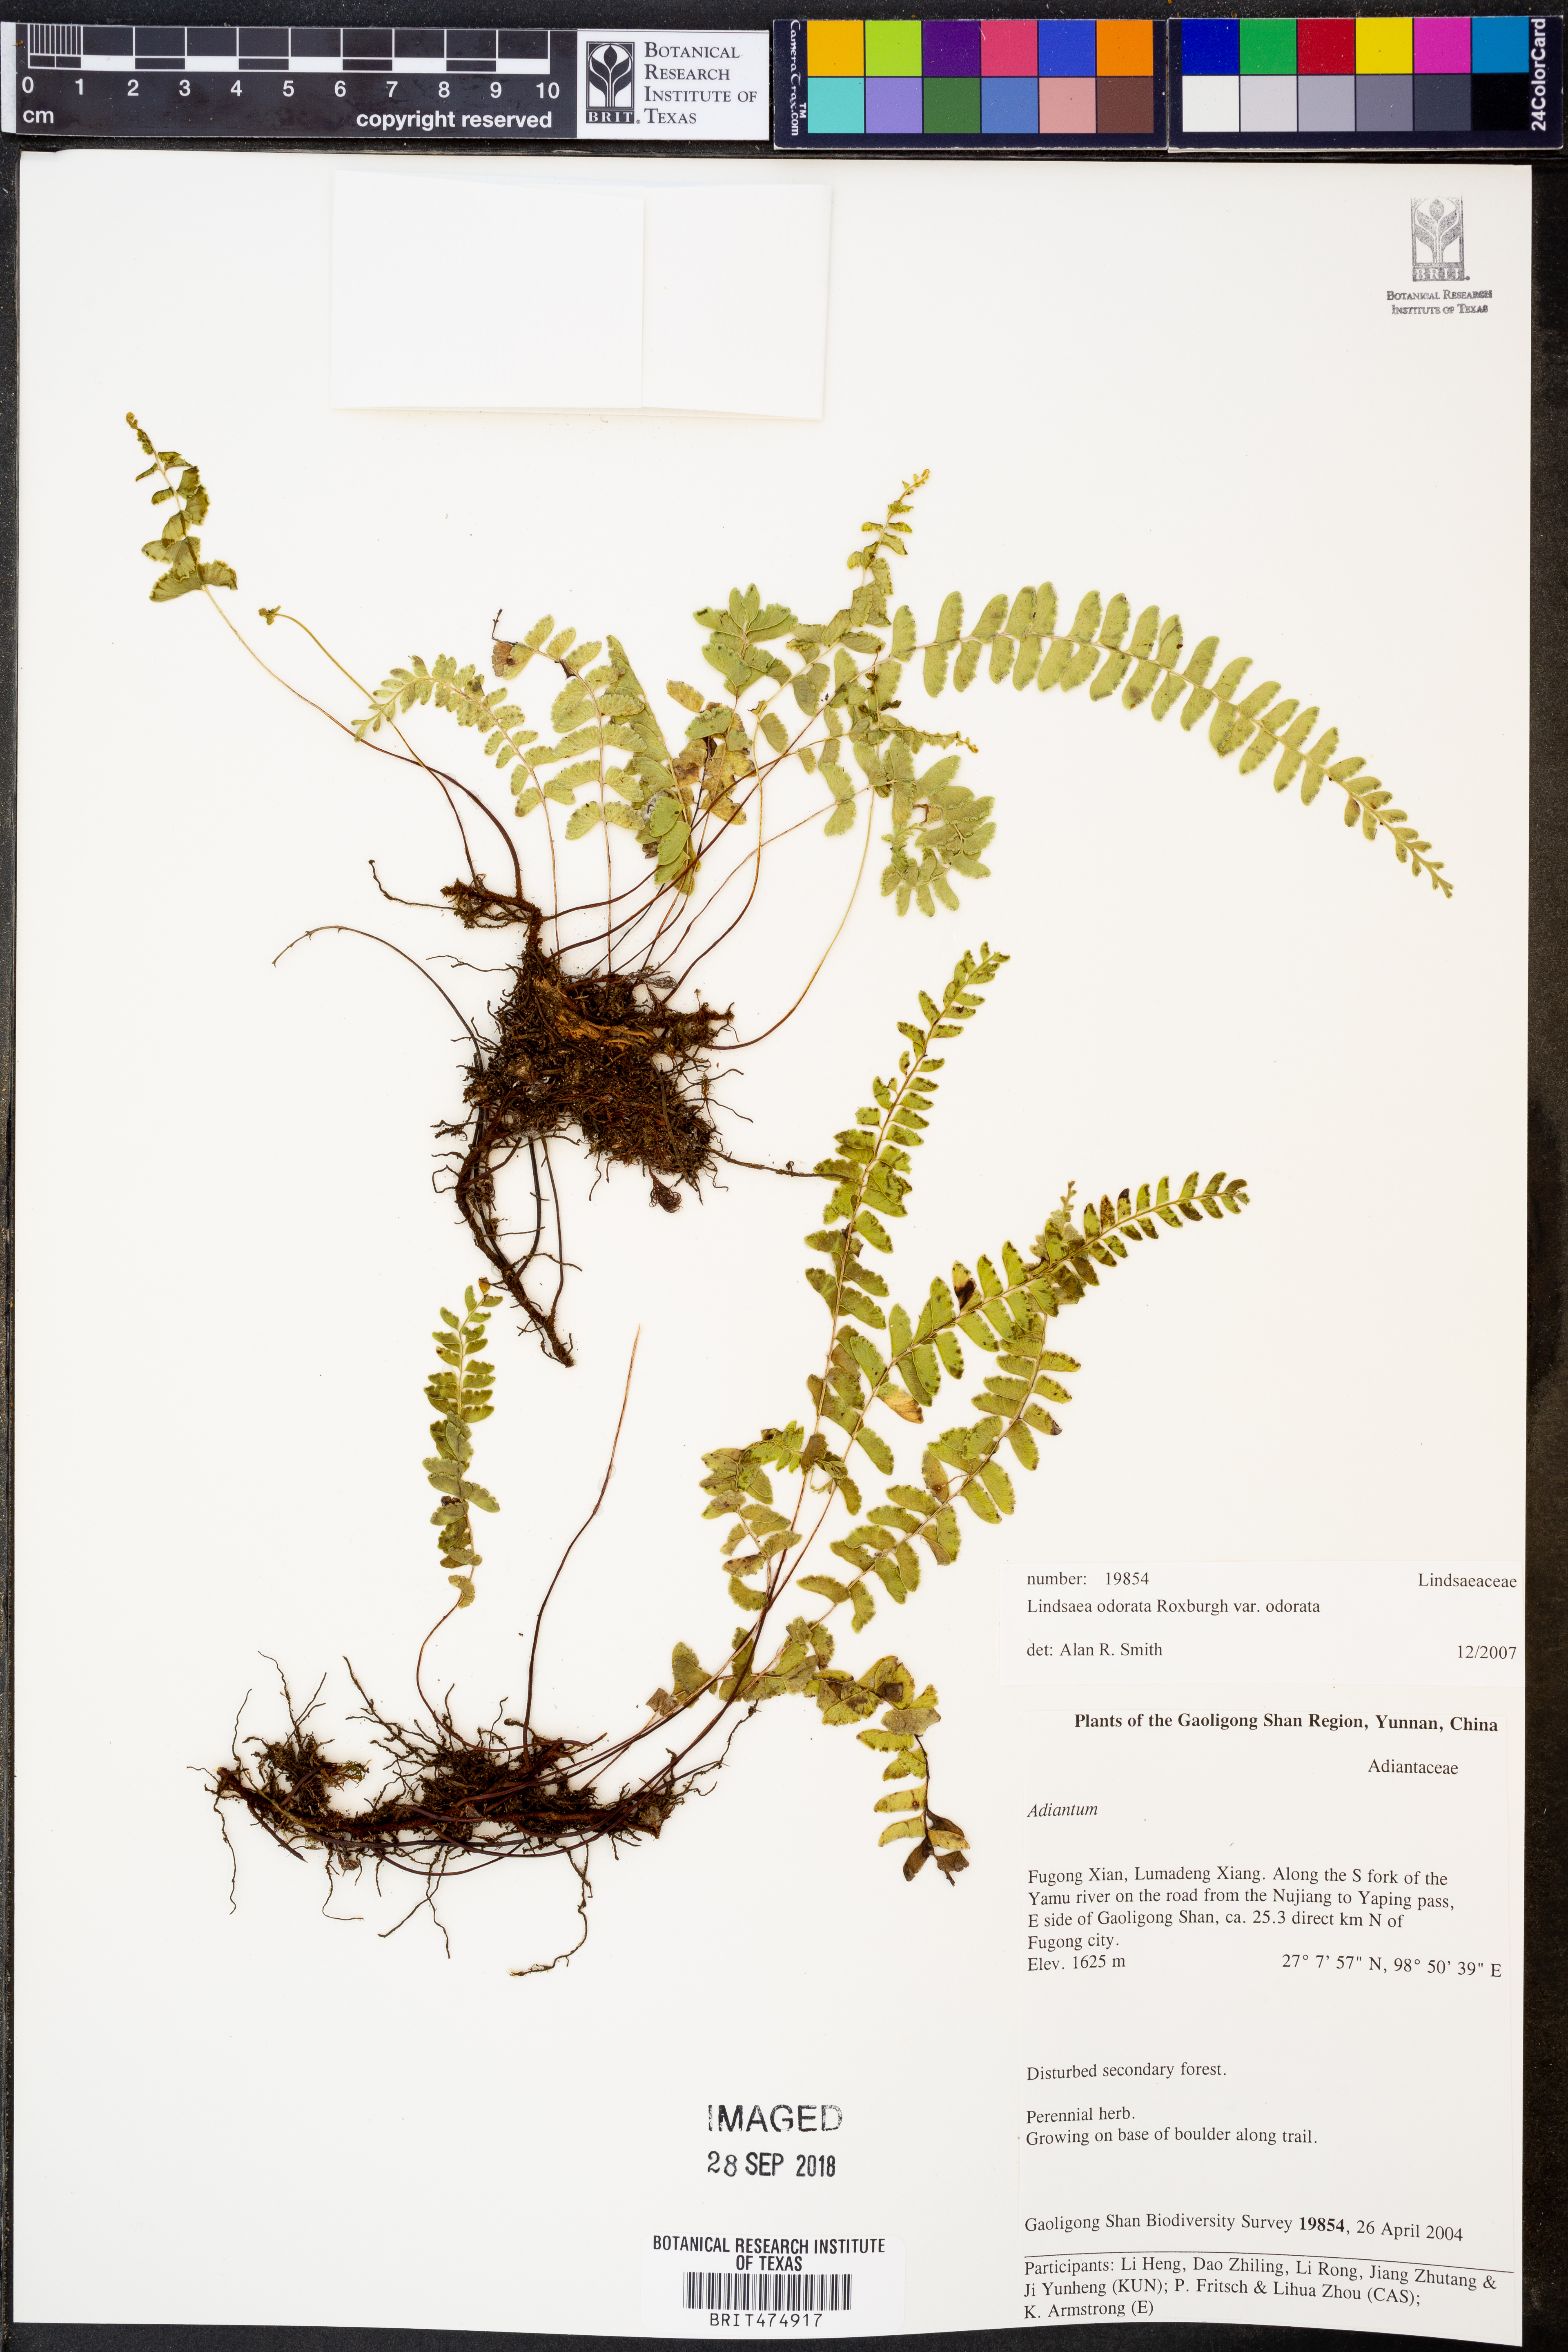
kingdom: Plantae
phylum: Tracheophyta
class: Polypodiopsida
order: Polypodiales
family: Lindsaeaceae
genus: Osmolindsaea
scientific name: Osmolindsaea odorata
